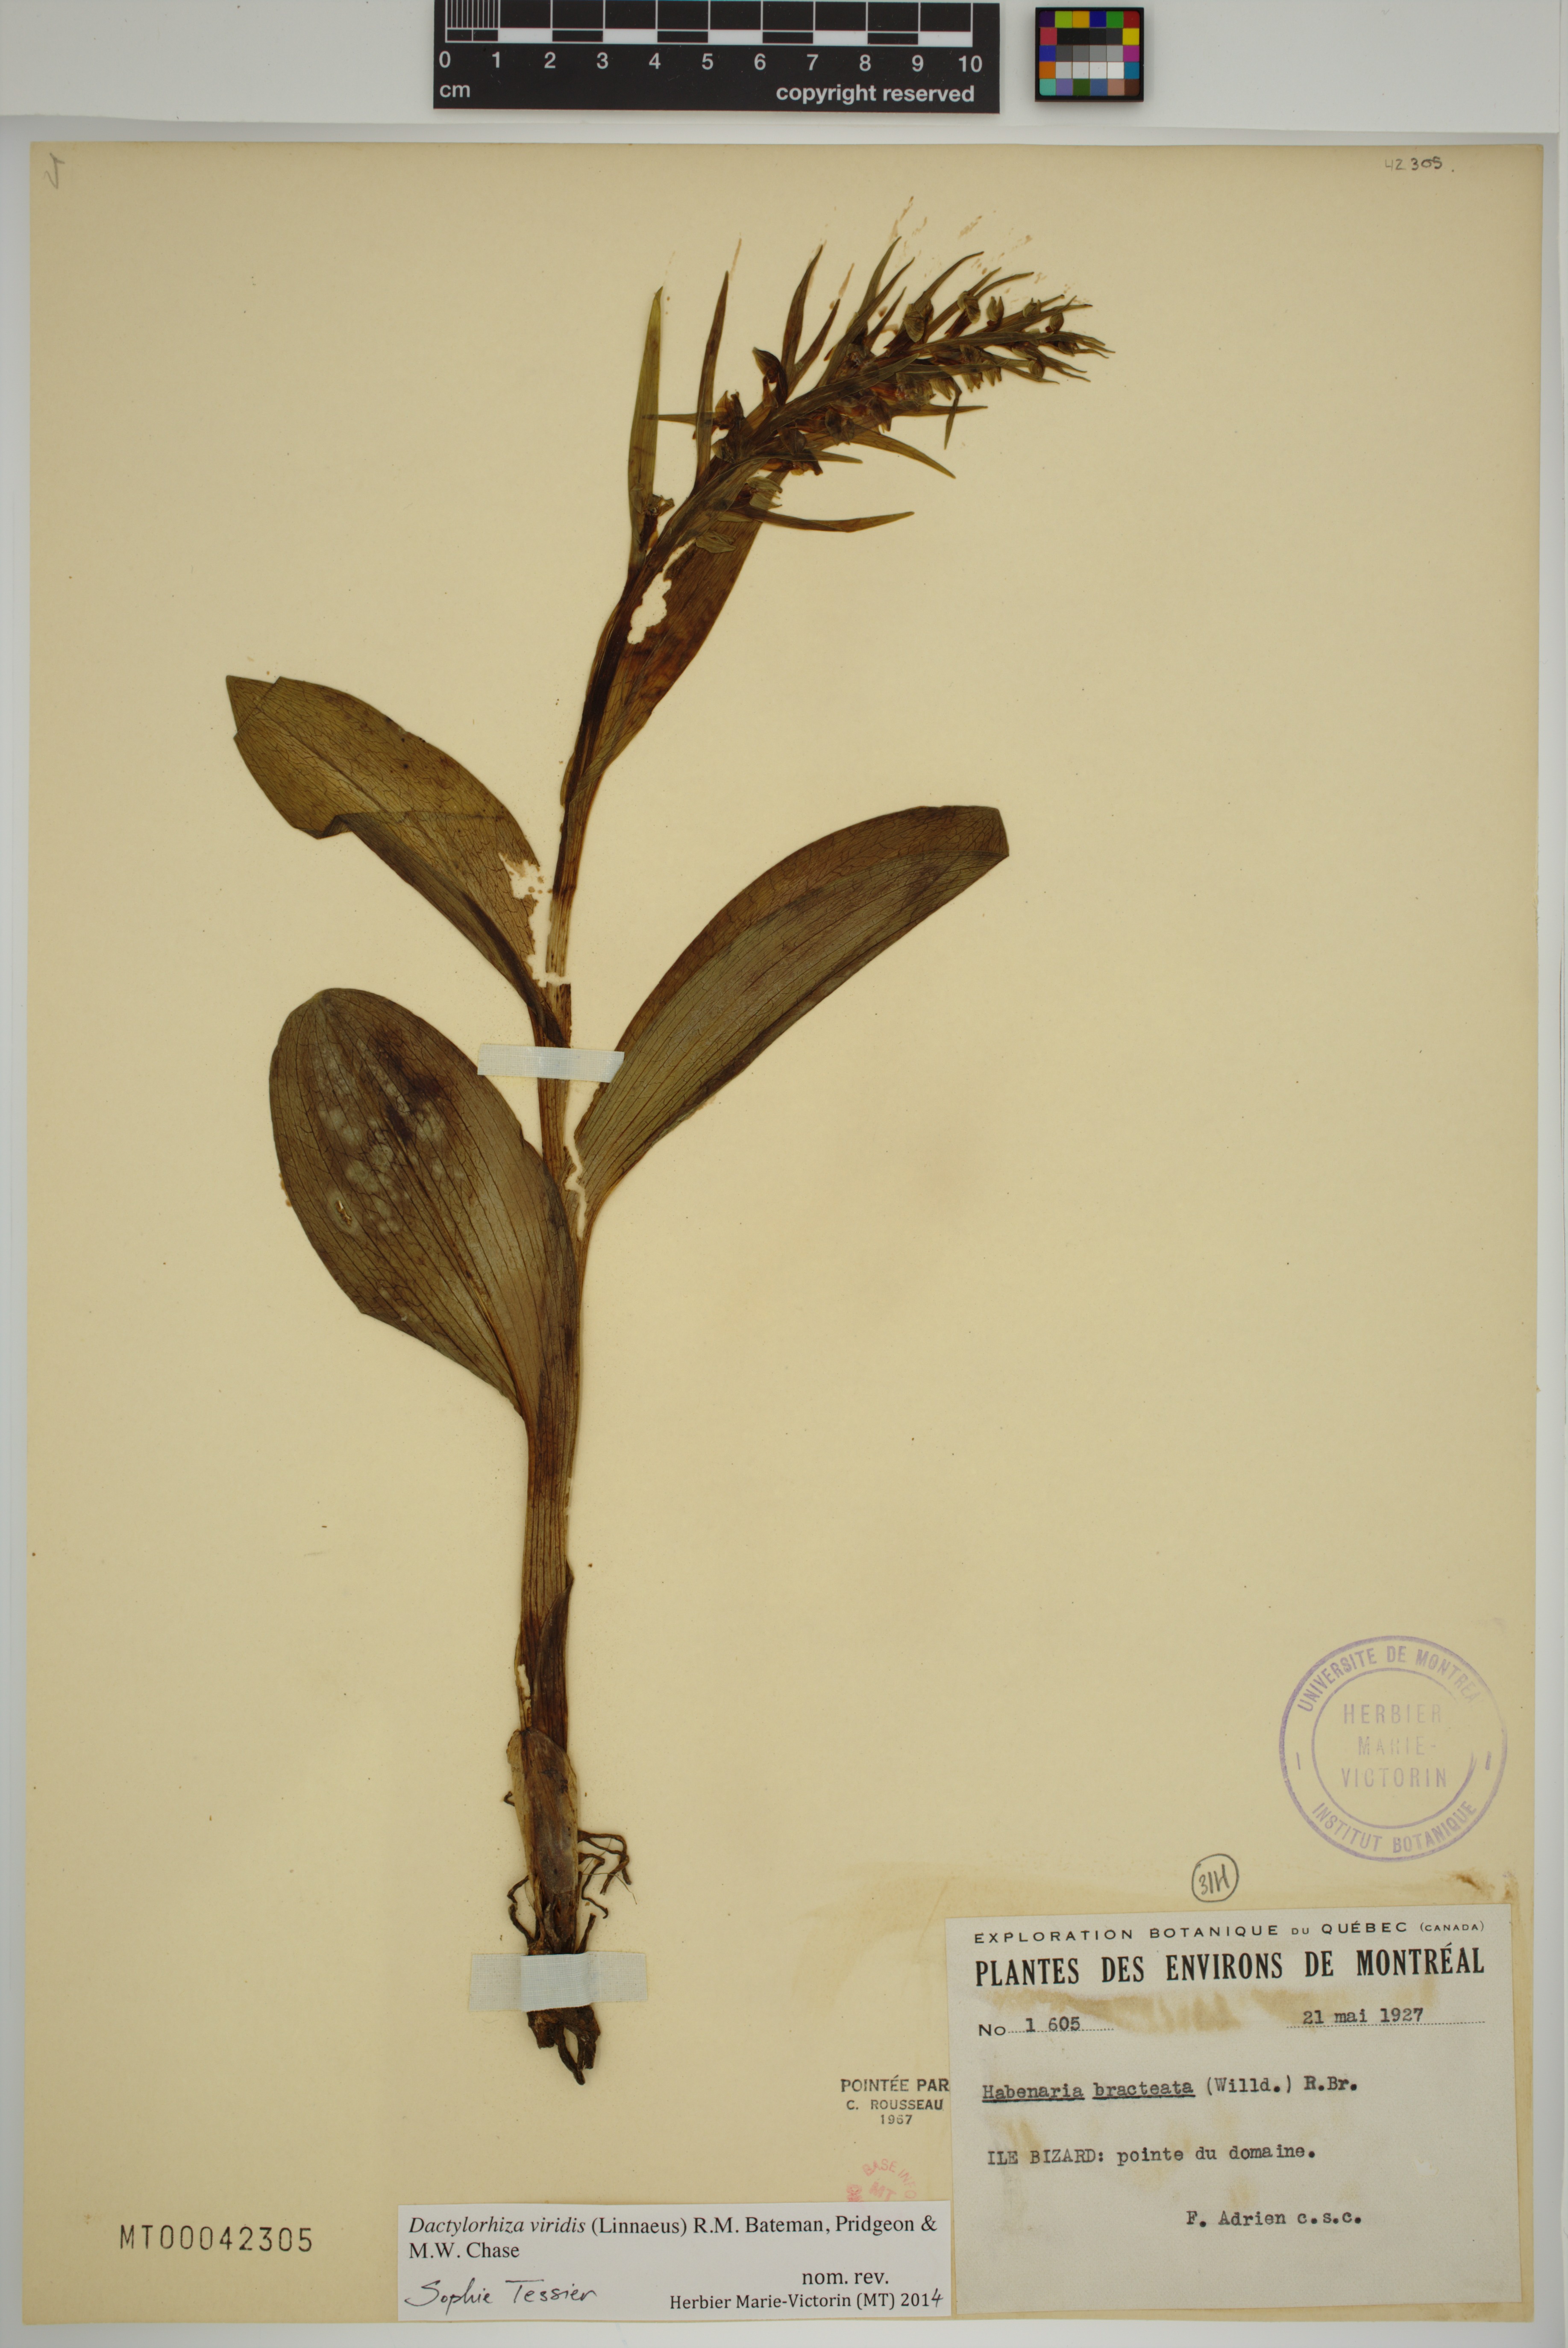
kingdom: Plantae
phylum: Tracheophyta
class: Liliopsida
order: Asparagales
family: Orchidaceae
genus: Dactylorhiza
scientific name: Dactylorhiza viridis
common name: Longbract frog orchid
